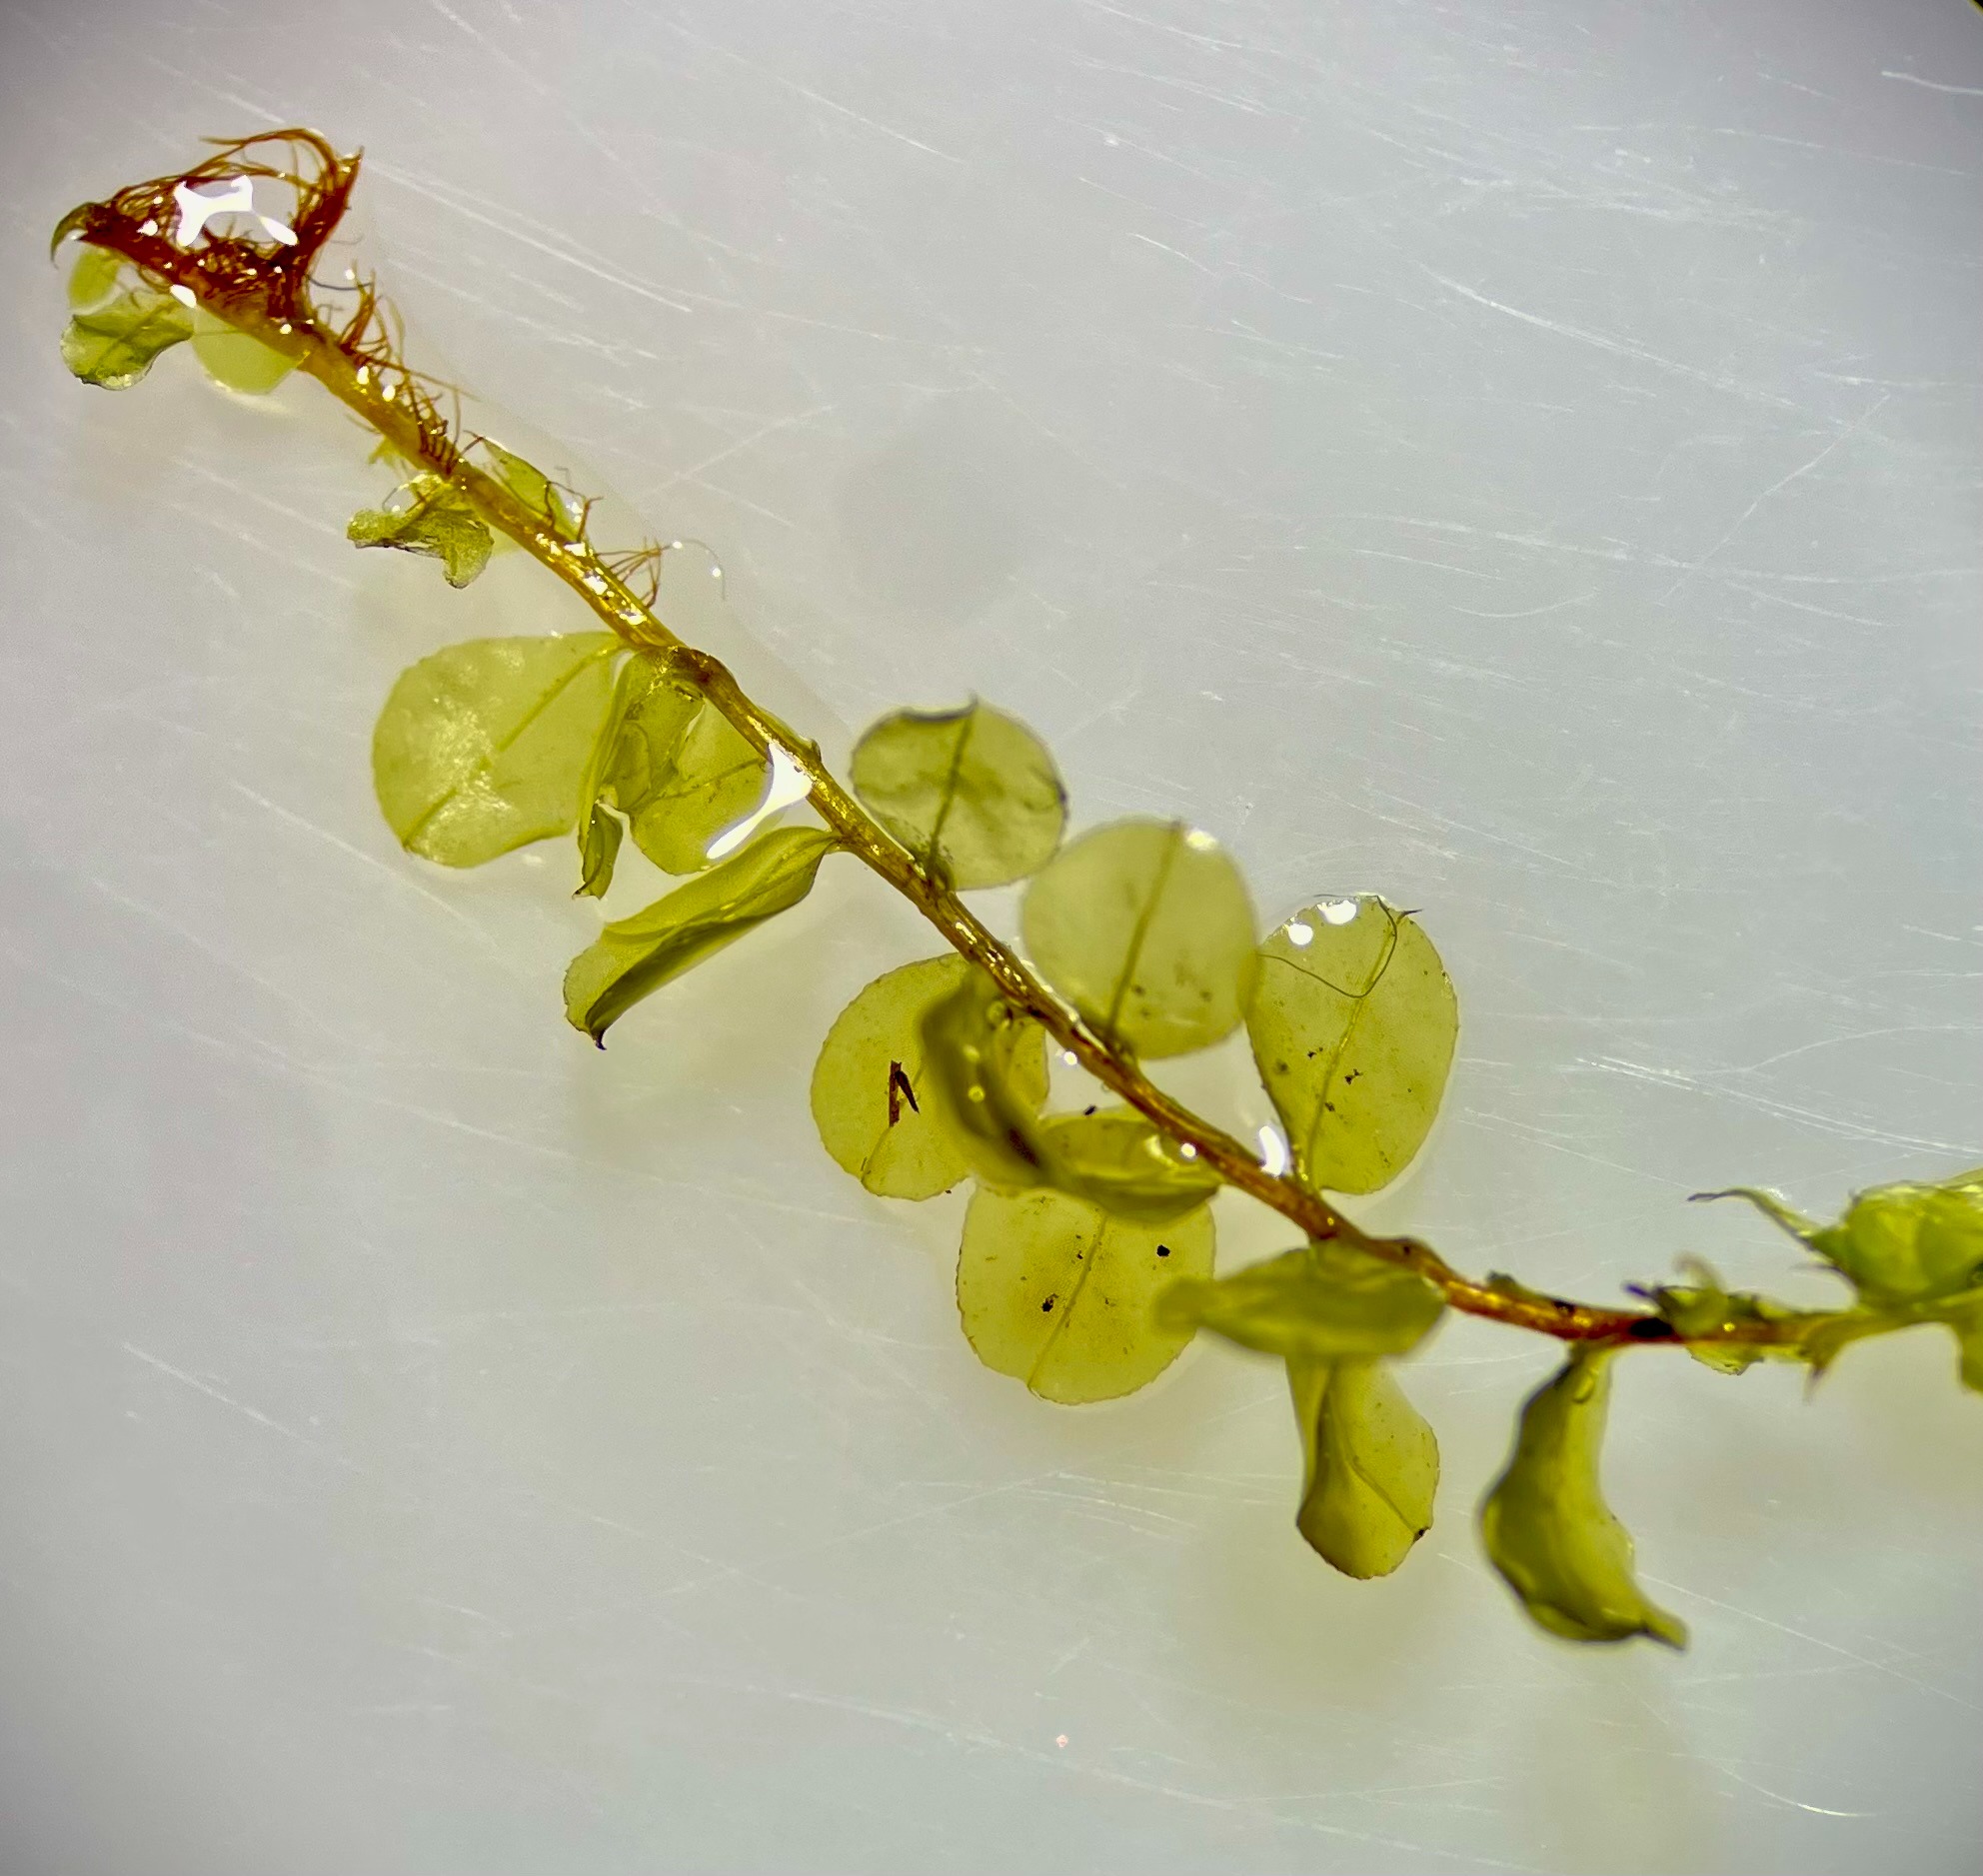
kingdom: Plantae
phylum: Bryophyta
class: Bryopsida
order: Bryales
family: Mniaceae
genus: Plagiomnium
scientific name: Plagiomnium affine
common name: Fælled-krybstjerne
